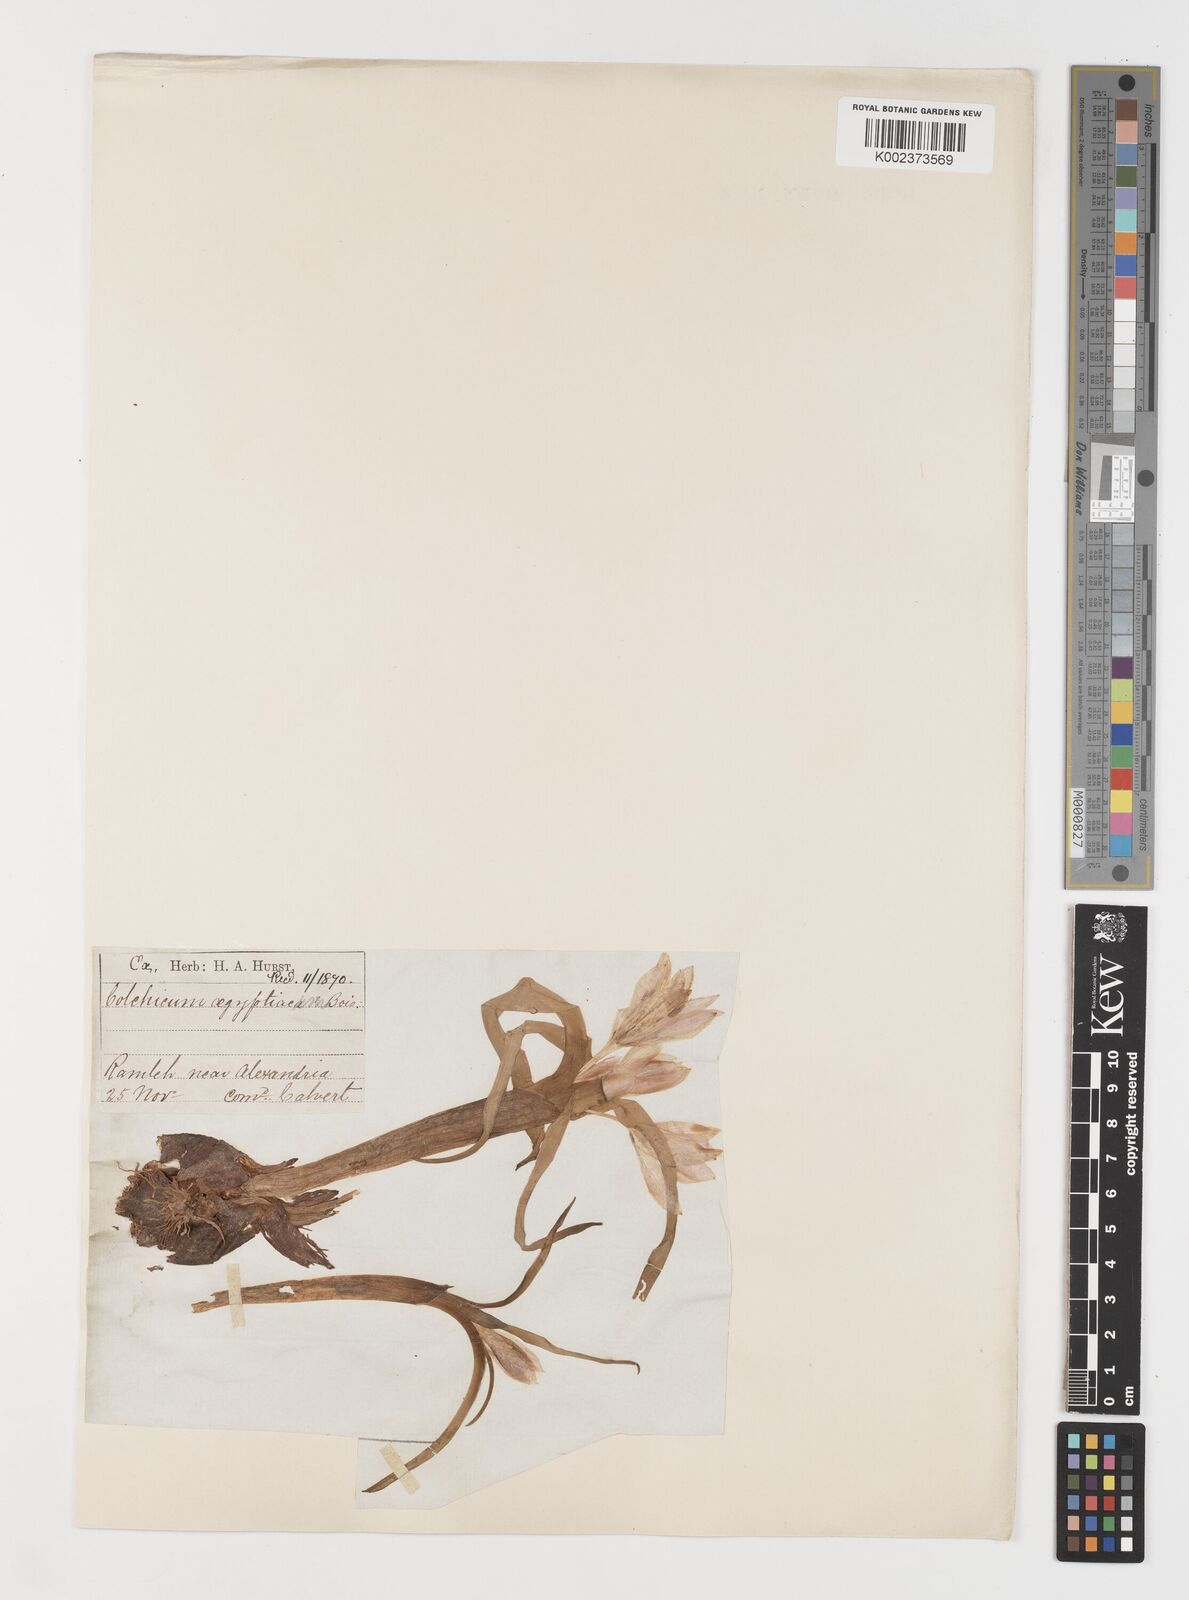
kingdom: Plantae
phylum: Tracheophyta
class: Liliopsida
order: Liliales
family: Colchicaceae
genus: Colchicum
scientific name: Colchicum ritchii
